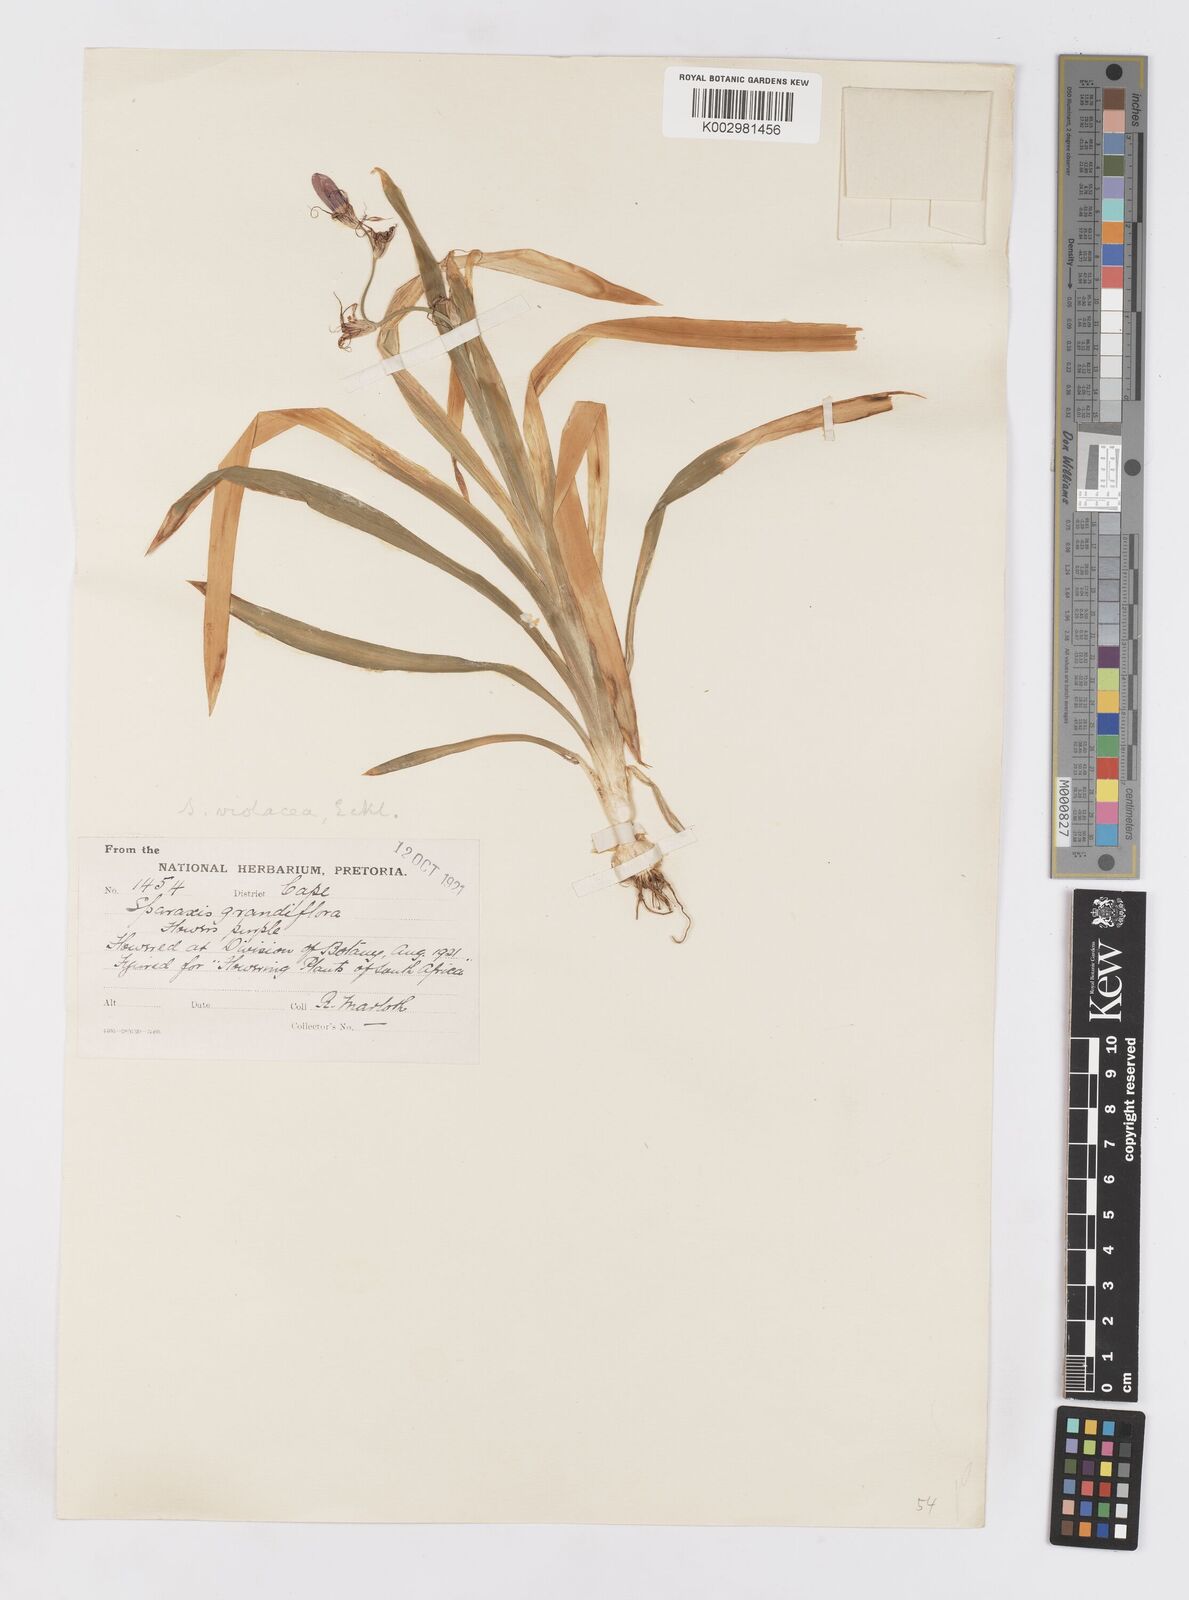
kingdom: Plantae
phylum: Tracheophyta
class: Liliopsida
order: Asparagales
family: Iridaceae
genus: Sparaxis
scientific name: Sparaxis grandiflora
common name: Plain harlequin-flower
